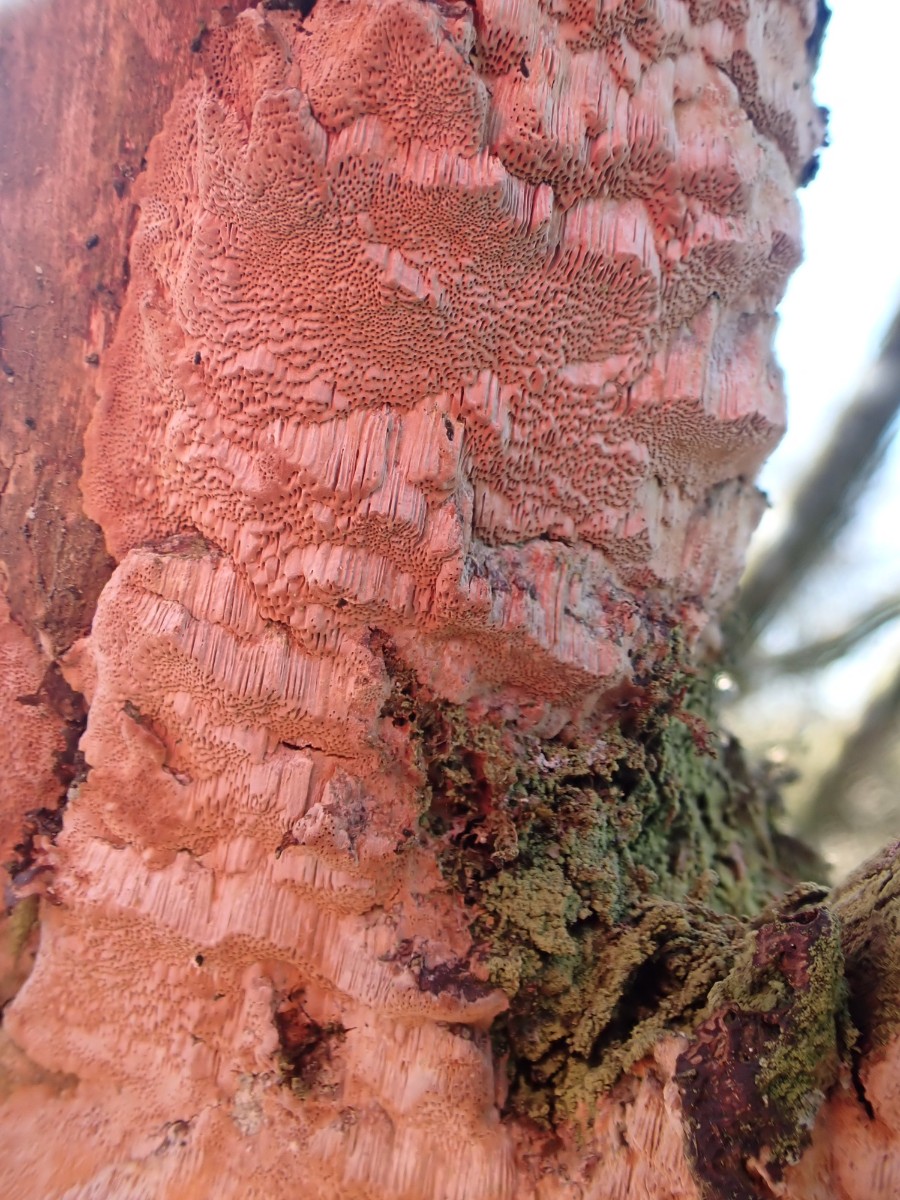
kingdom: Fungi
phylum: Basidiomycota
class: Agaricomycetes
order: Hymenochaetales
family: Hymenochaetaceae
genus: Fuscoporia
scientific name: Fuscoporia ferrea
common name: skorpe-ildporesvamp
